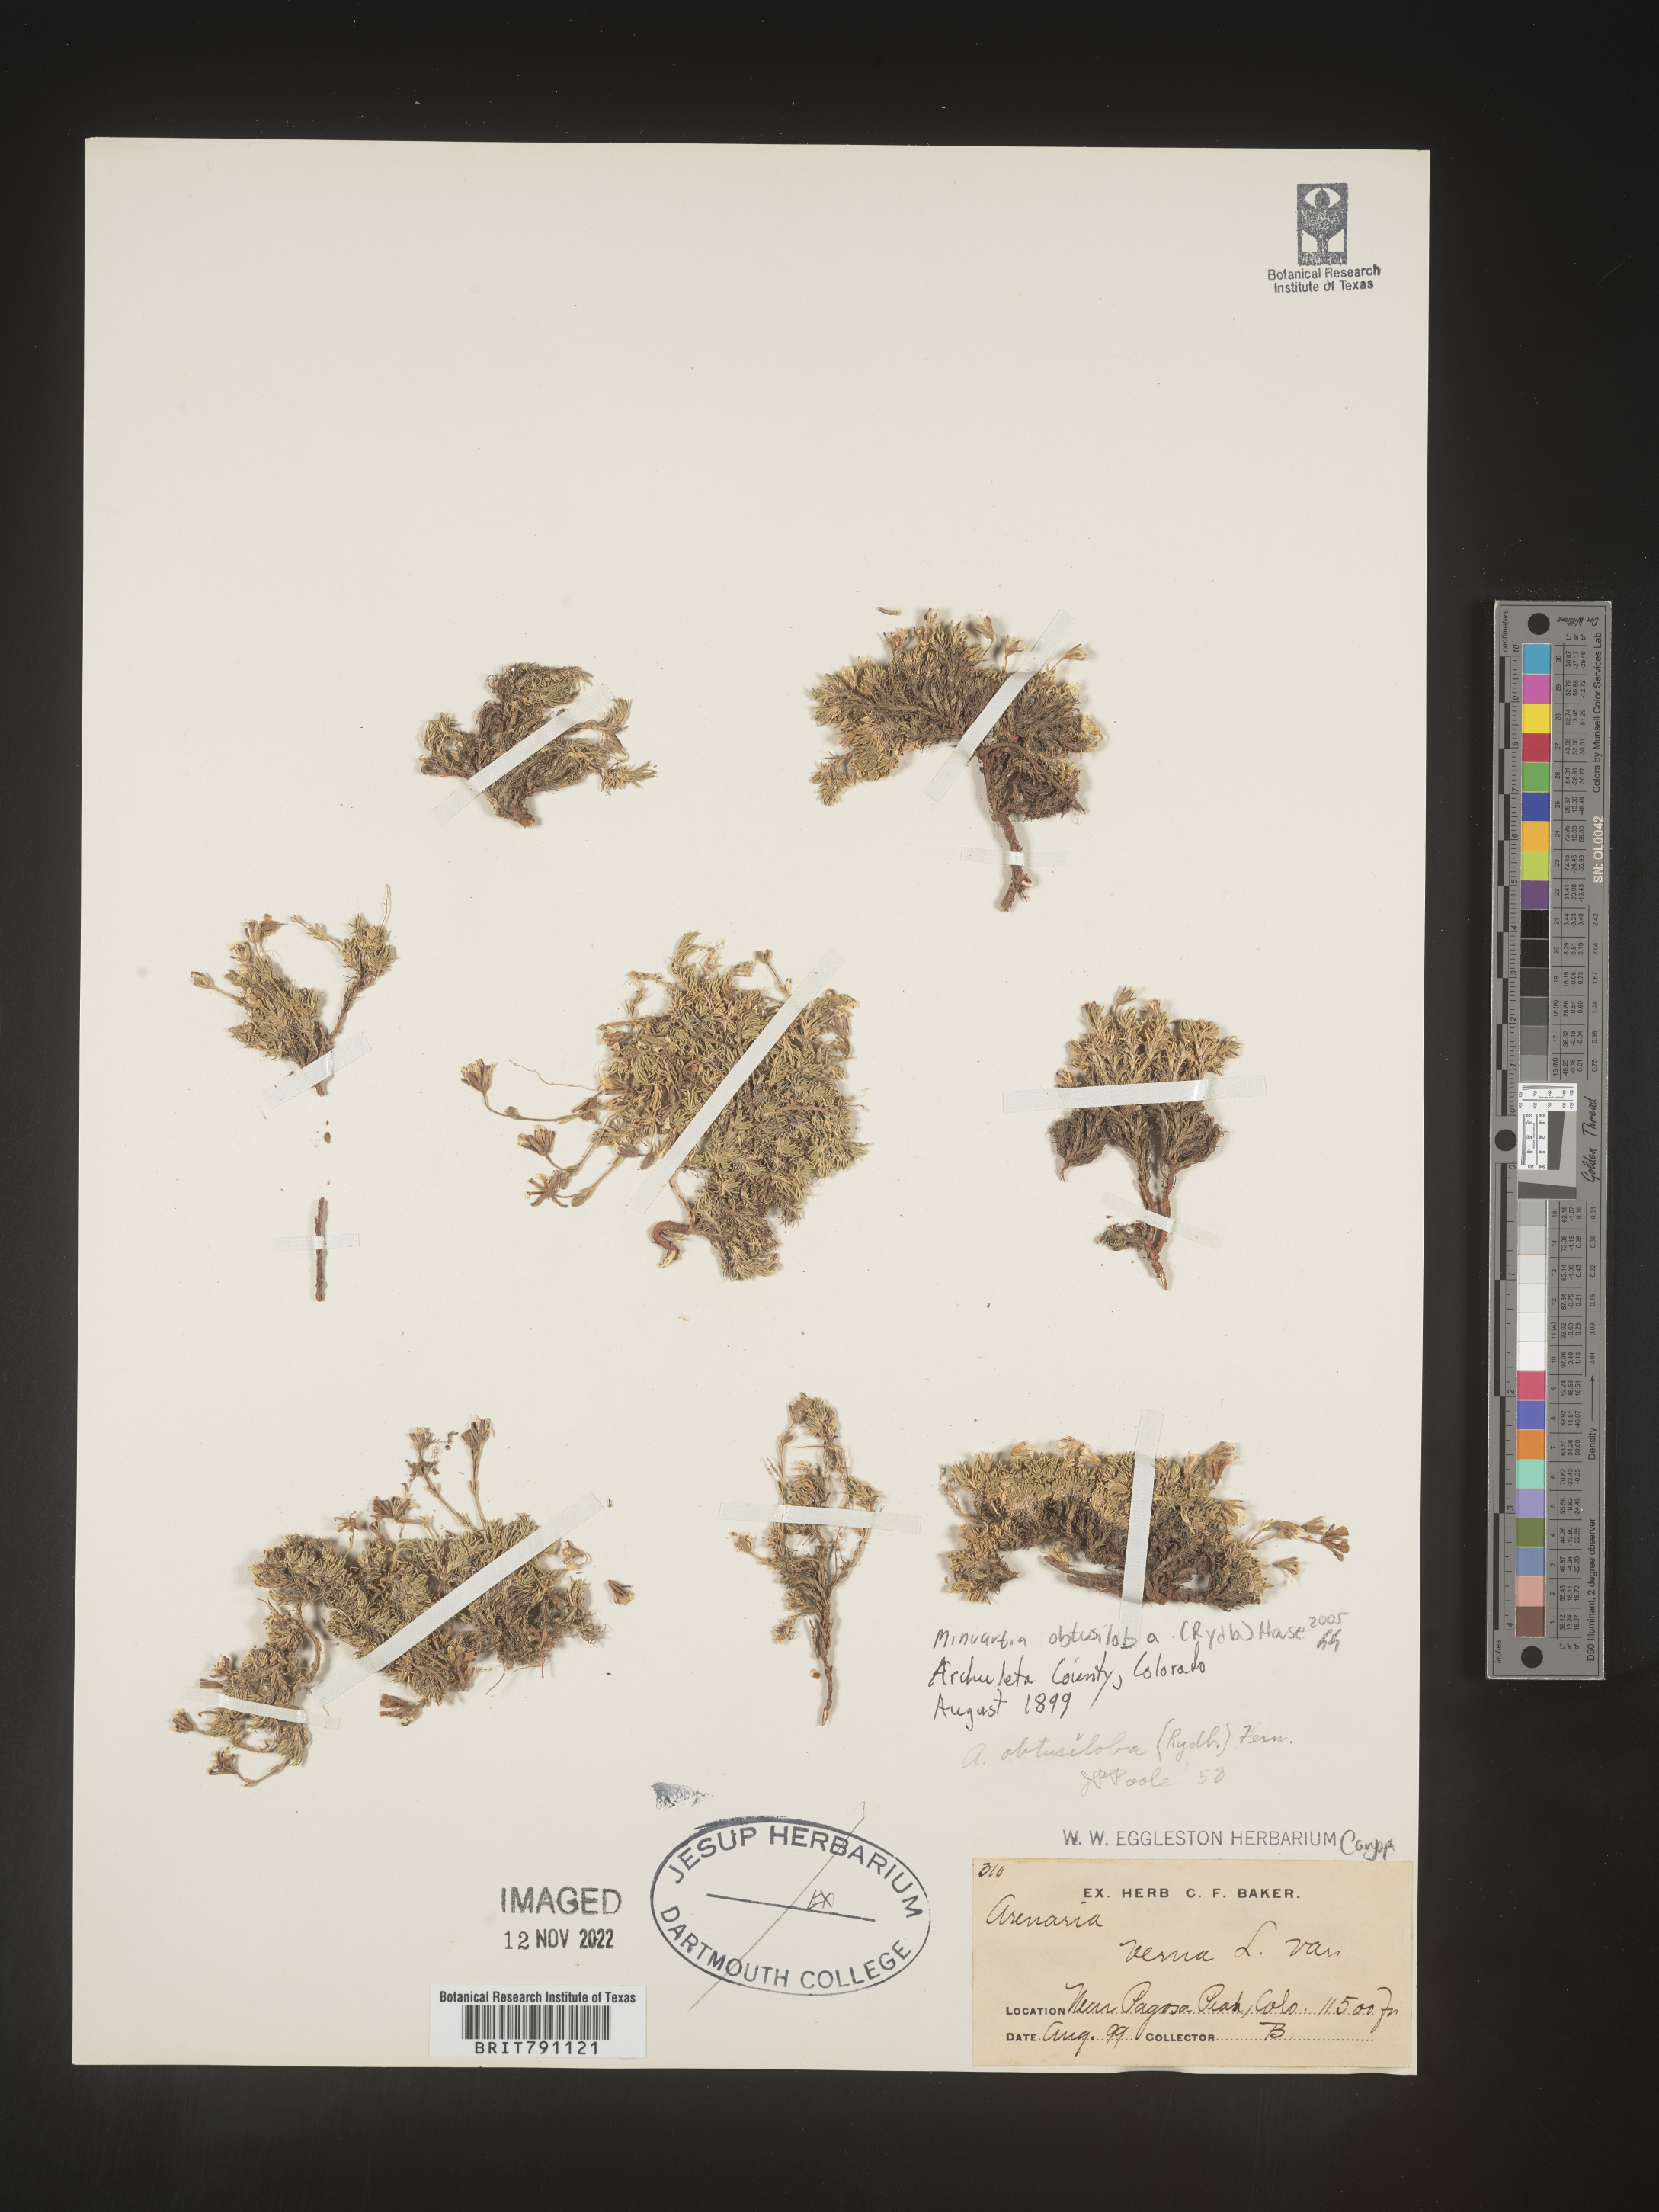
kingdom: Plantae
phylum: Tracheophyta
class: Magnoliopsida
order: Caryophyllales
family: Caryophyllaceae
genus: Cherleria
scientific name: Cherleria obtusiloba
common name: Alpine stitchwort
